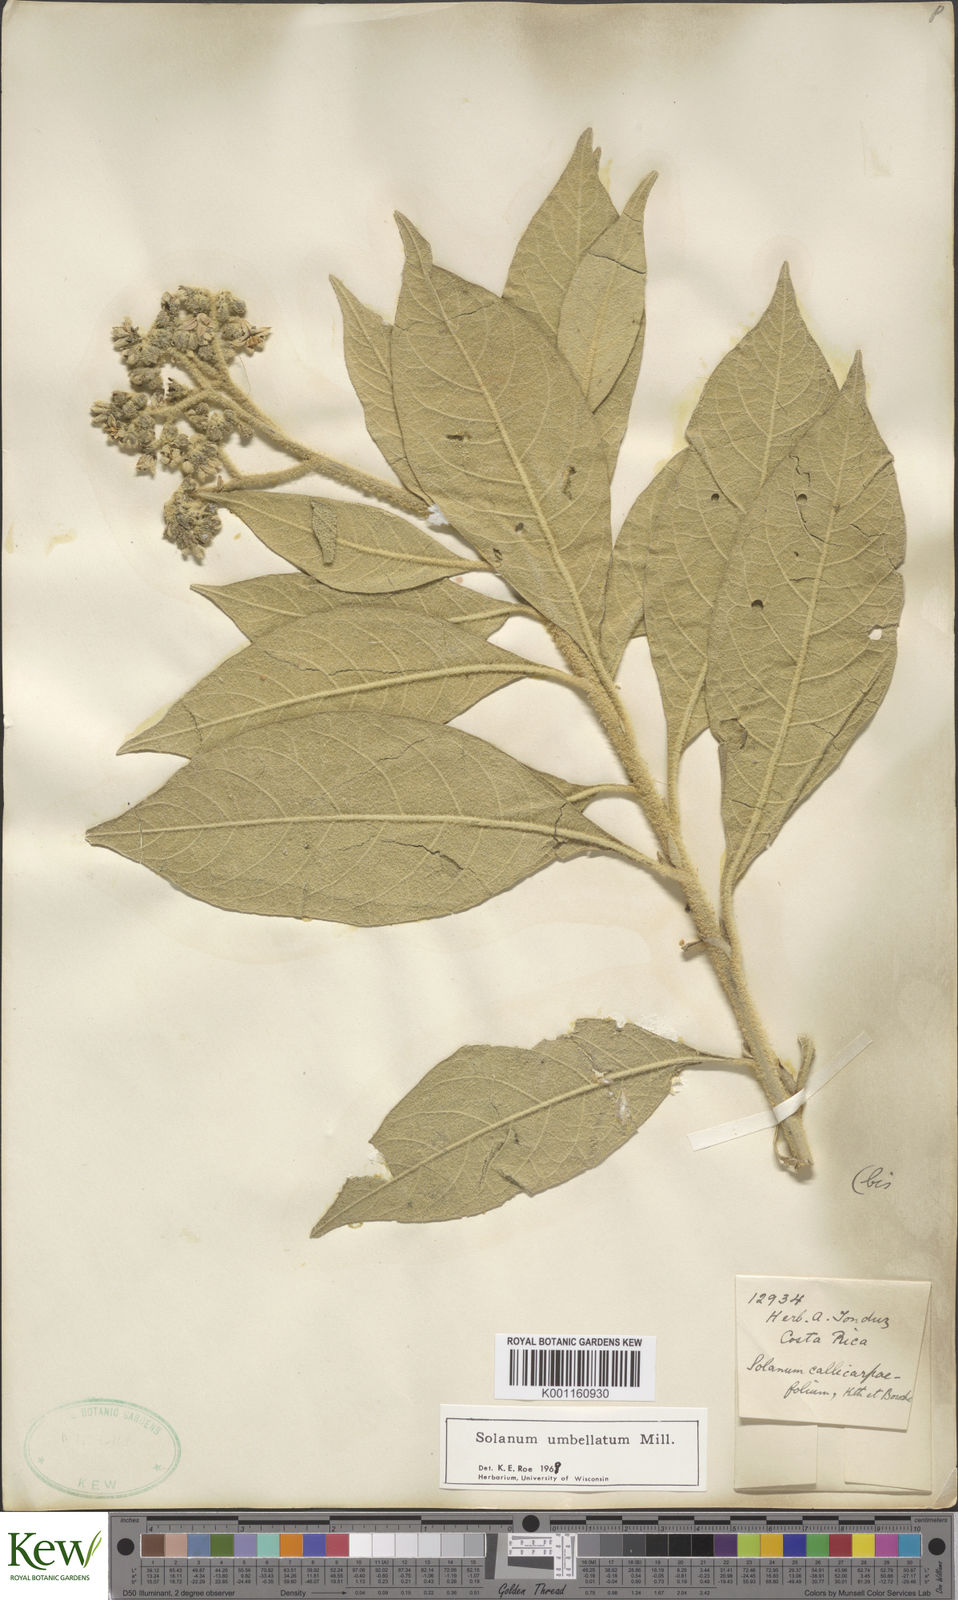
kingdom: Plantae
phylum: Tracheophyta
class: Magnoliopsida
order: Solanales
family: Solanaceae
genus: Solanum
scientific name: Solanum umbellatum
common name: Nightshade
